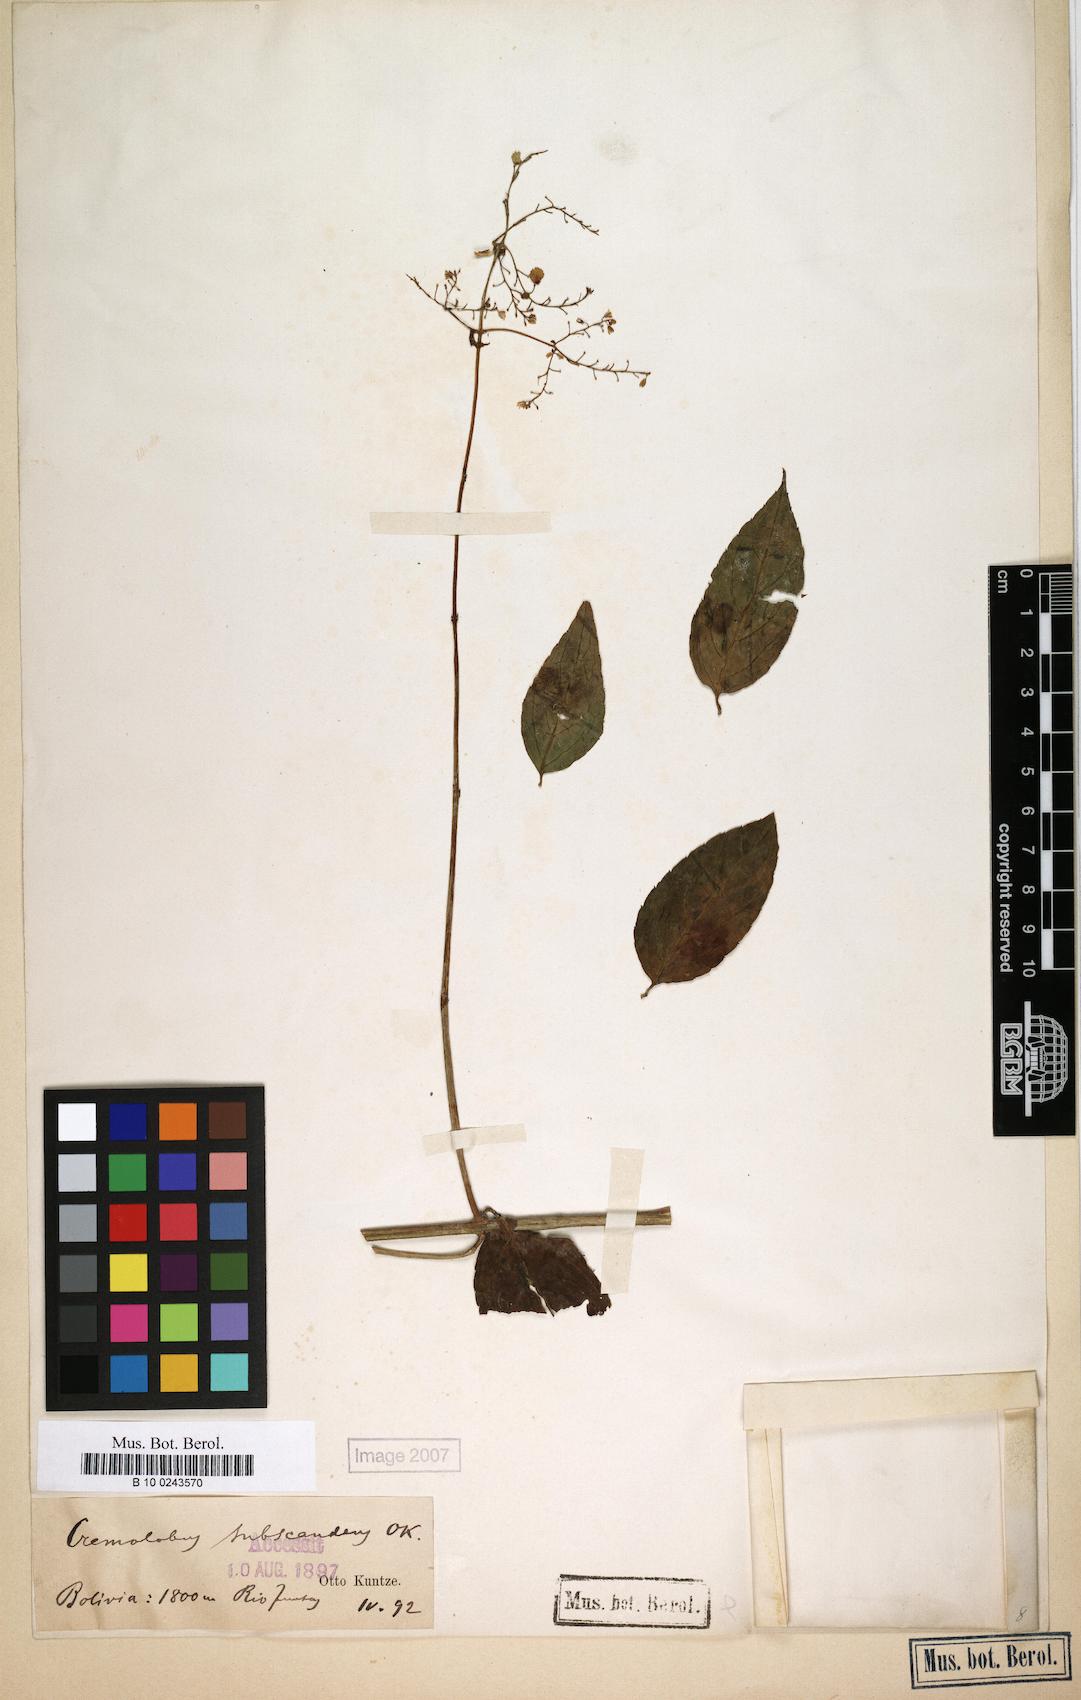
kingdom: Plantae
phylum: Tracheophyta
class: Magnoliopsida
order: Brassicales
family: Brassicaceae
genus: Cremolobus
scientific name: Cremolobus subscandens
